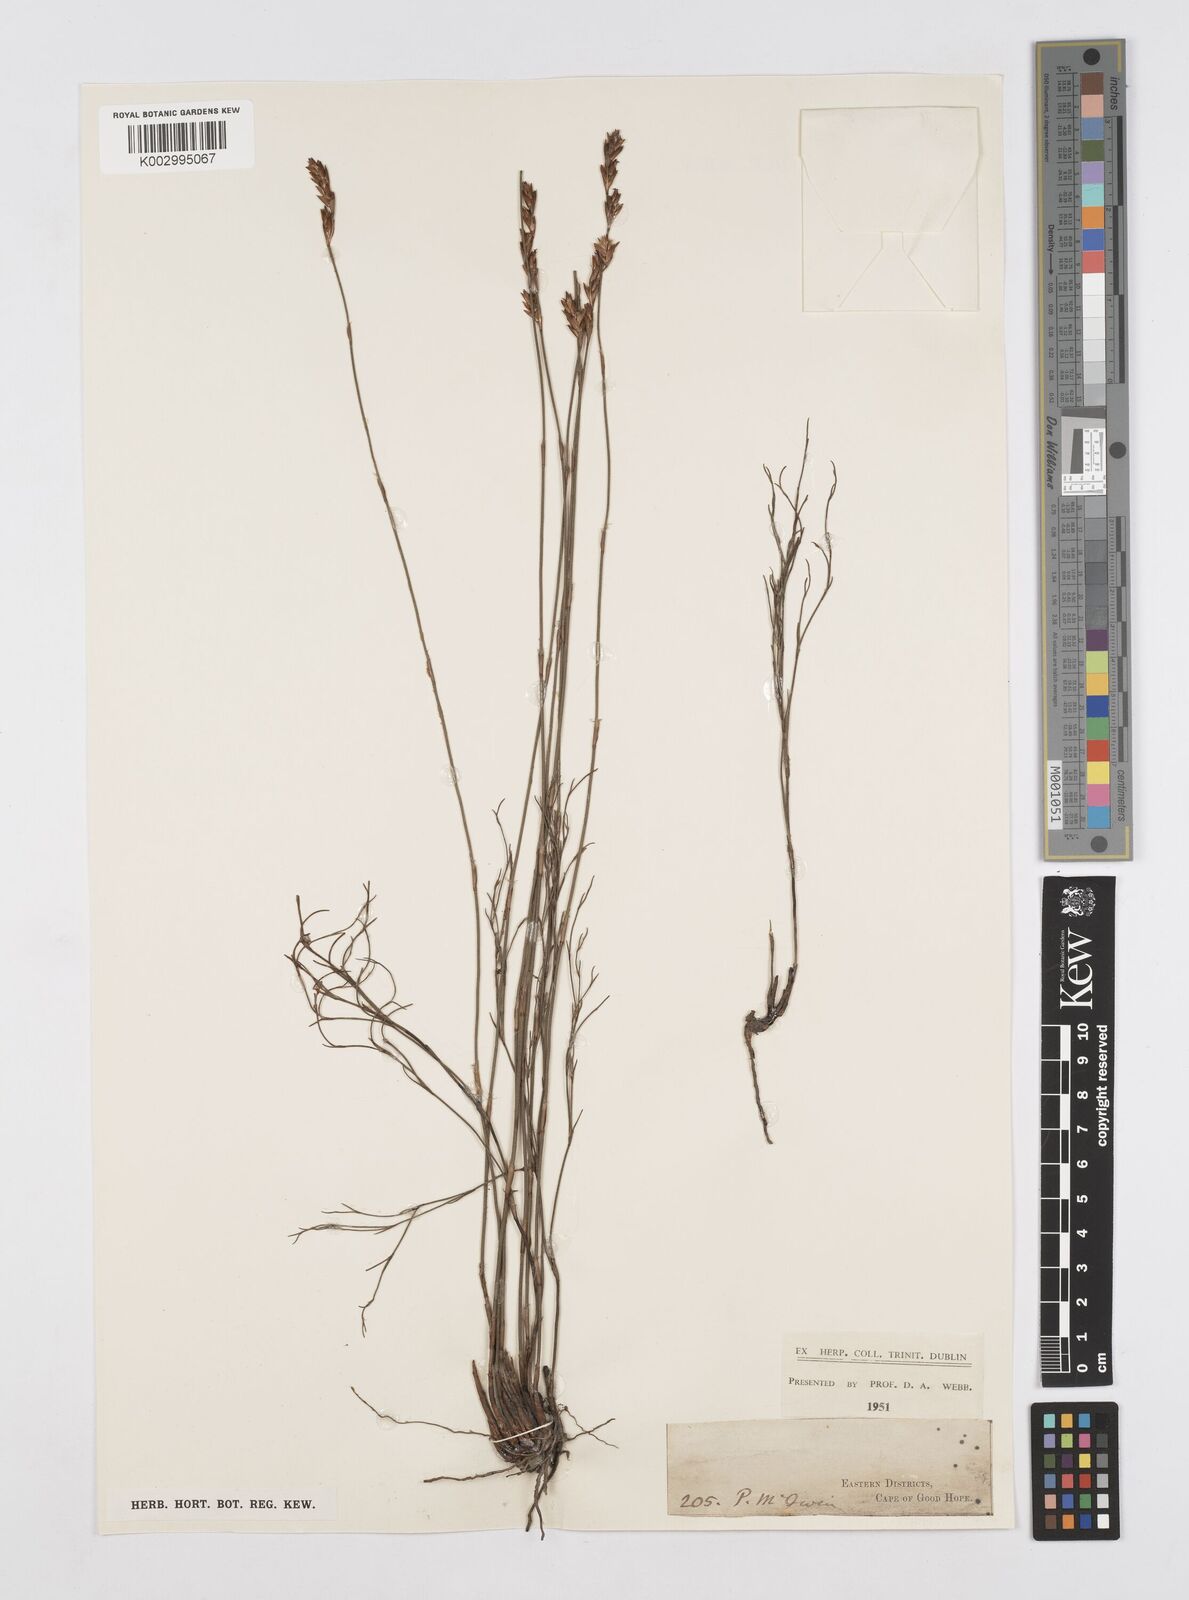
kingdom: Plantae
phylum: Tracheophyta
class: Liliopsida
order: Poales
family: Restionaceae
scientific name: Restionaceae
